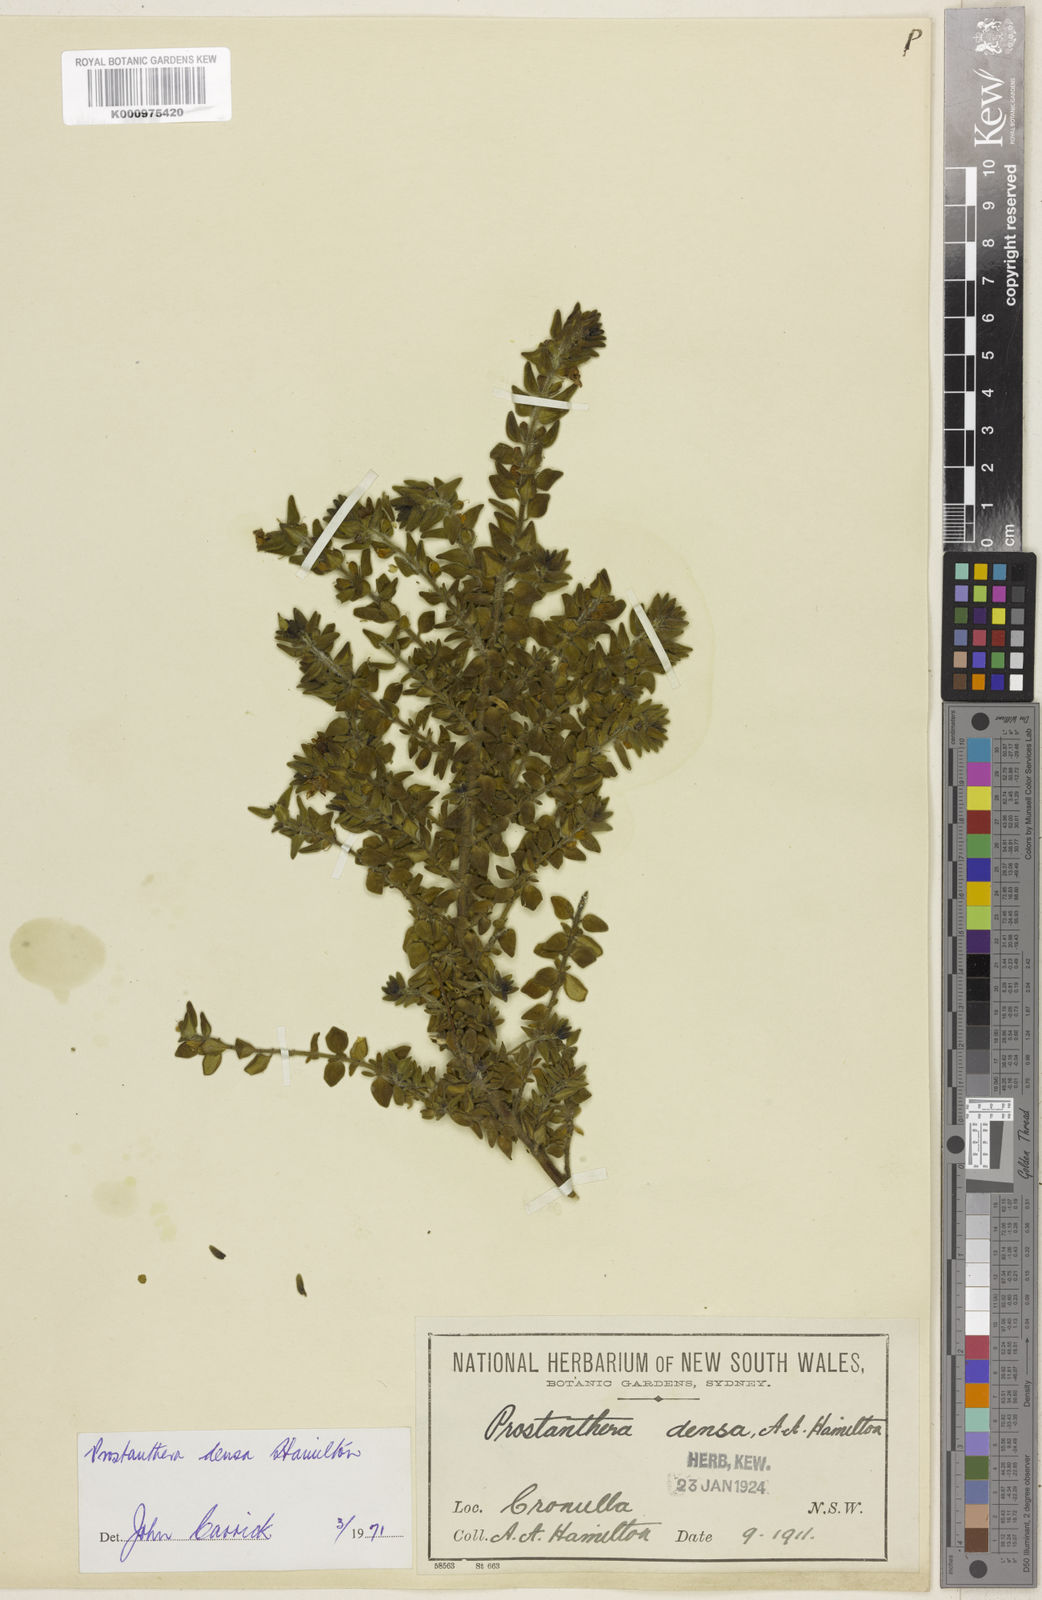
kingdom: Plantae
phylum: Tracheophyta
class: Magnoliopsida
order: Lamiales
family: Lamiaceae
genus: Prostanthera
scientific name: Prostanthera densa
